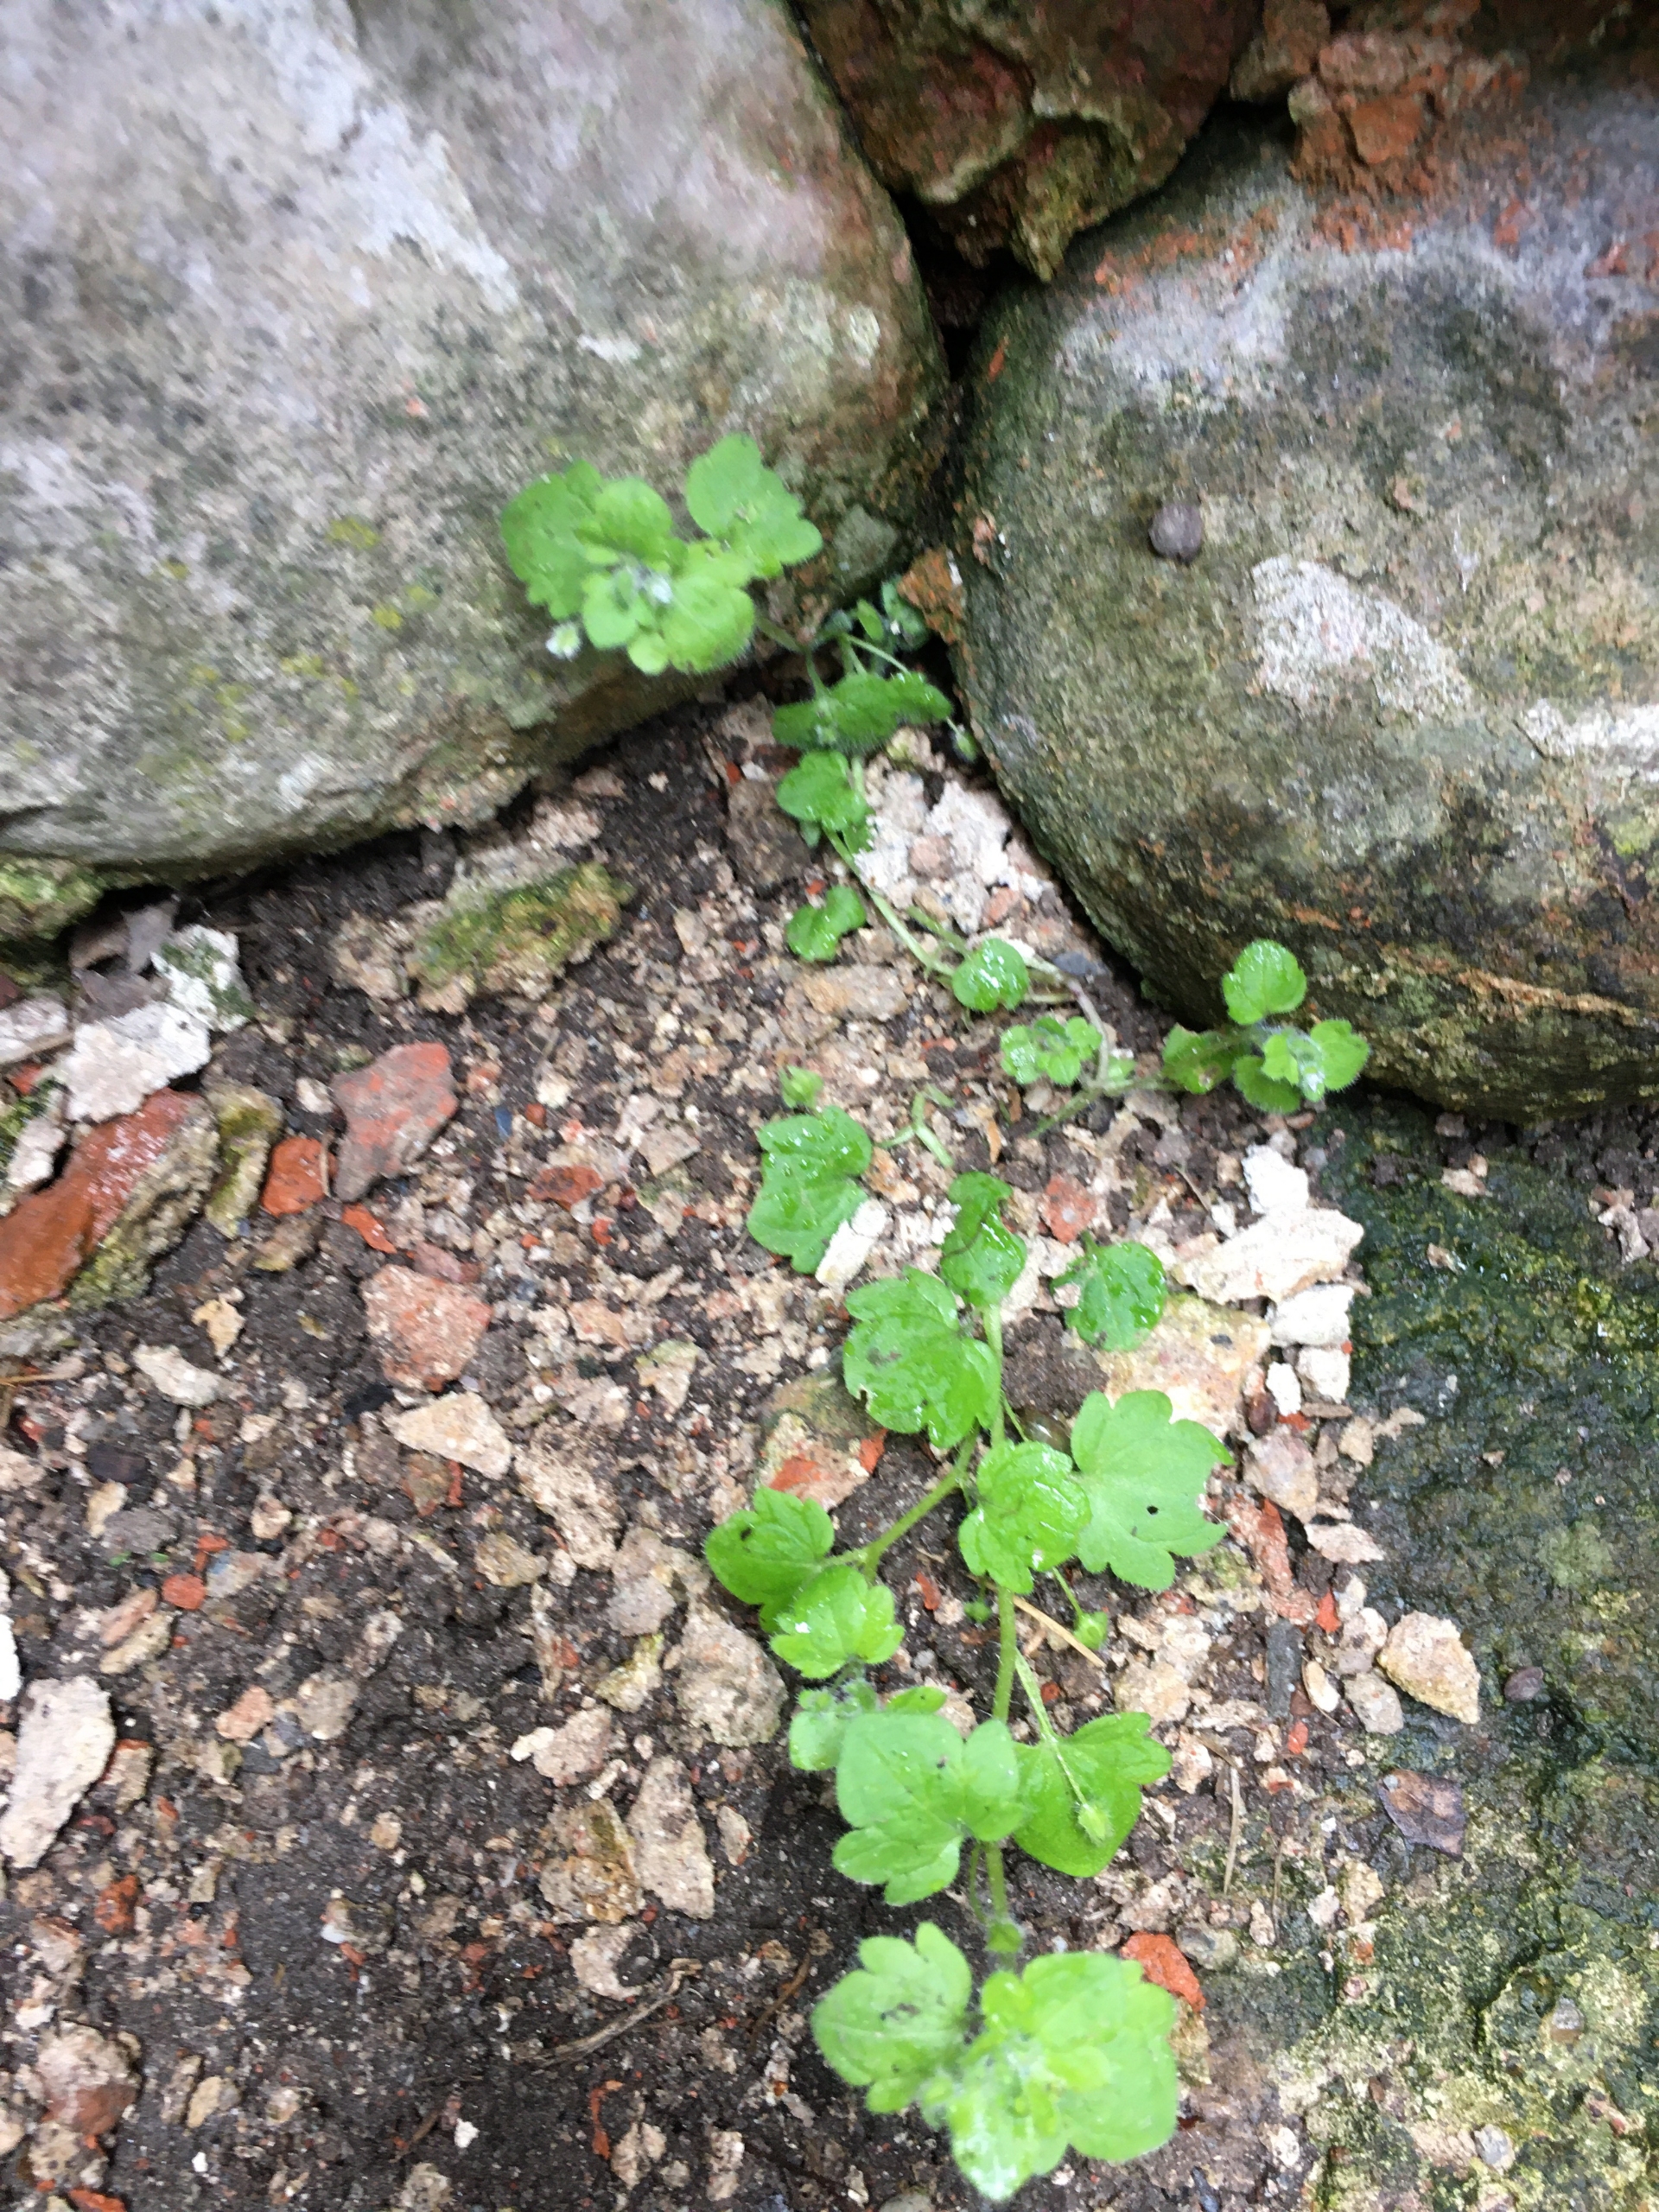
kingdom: Plantae
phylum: Tracheophyta
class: Magnoliopsida
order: Lamiales
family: Plantaginaceae
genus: Veronica
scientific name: Veronica sublobata
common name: Krat-ærenpris
